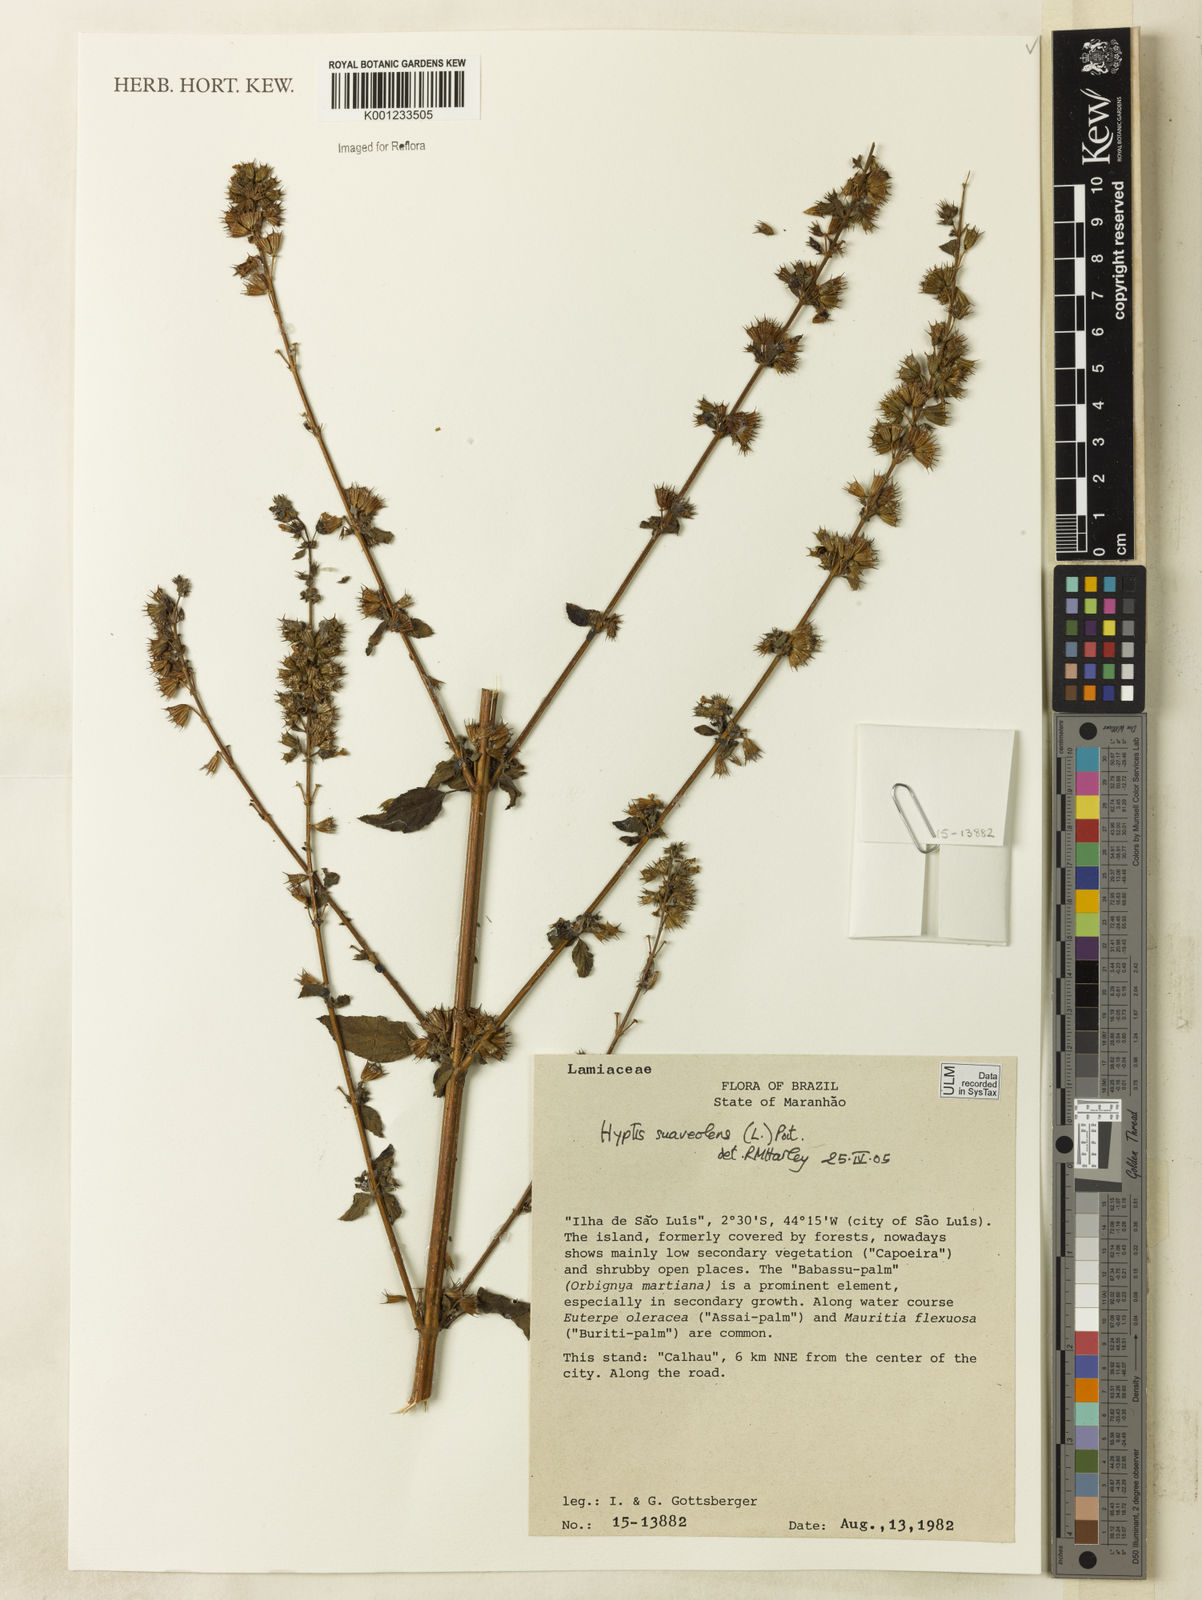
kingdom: Plantae
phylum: Tracheophyta
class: Magnoliopsida
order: Lamiales
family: Lamiaceae
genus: Mesosphaerum
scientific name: Mesosphaerum suaveolens
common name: Pignut
